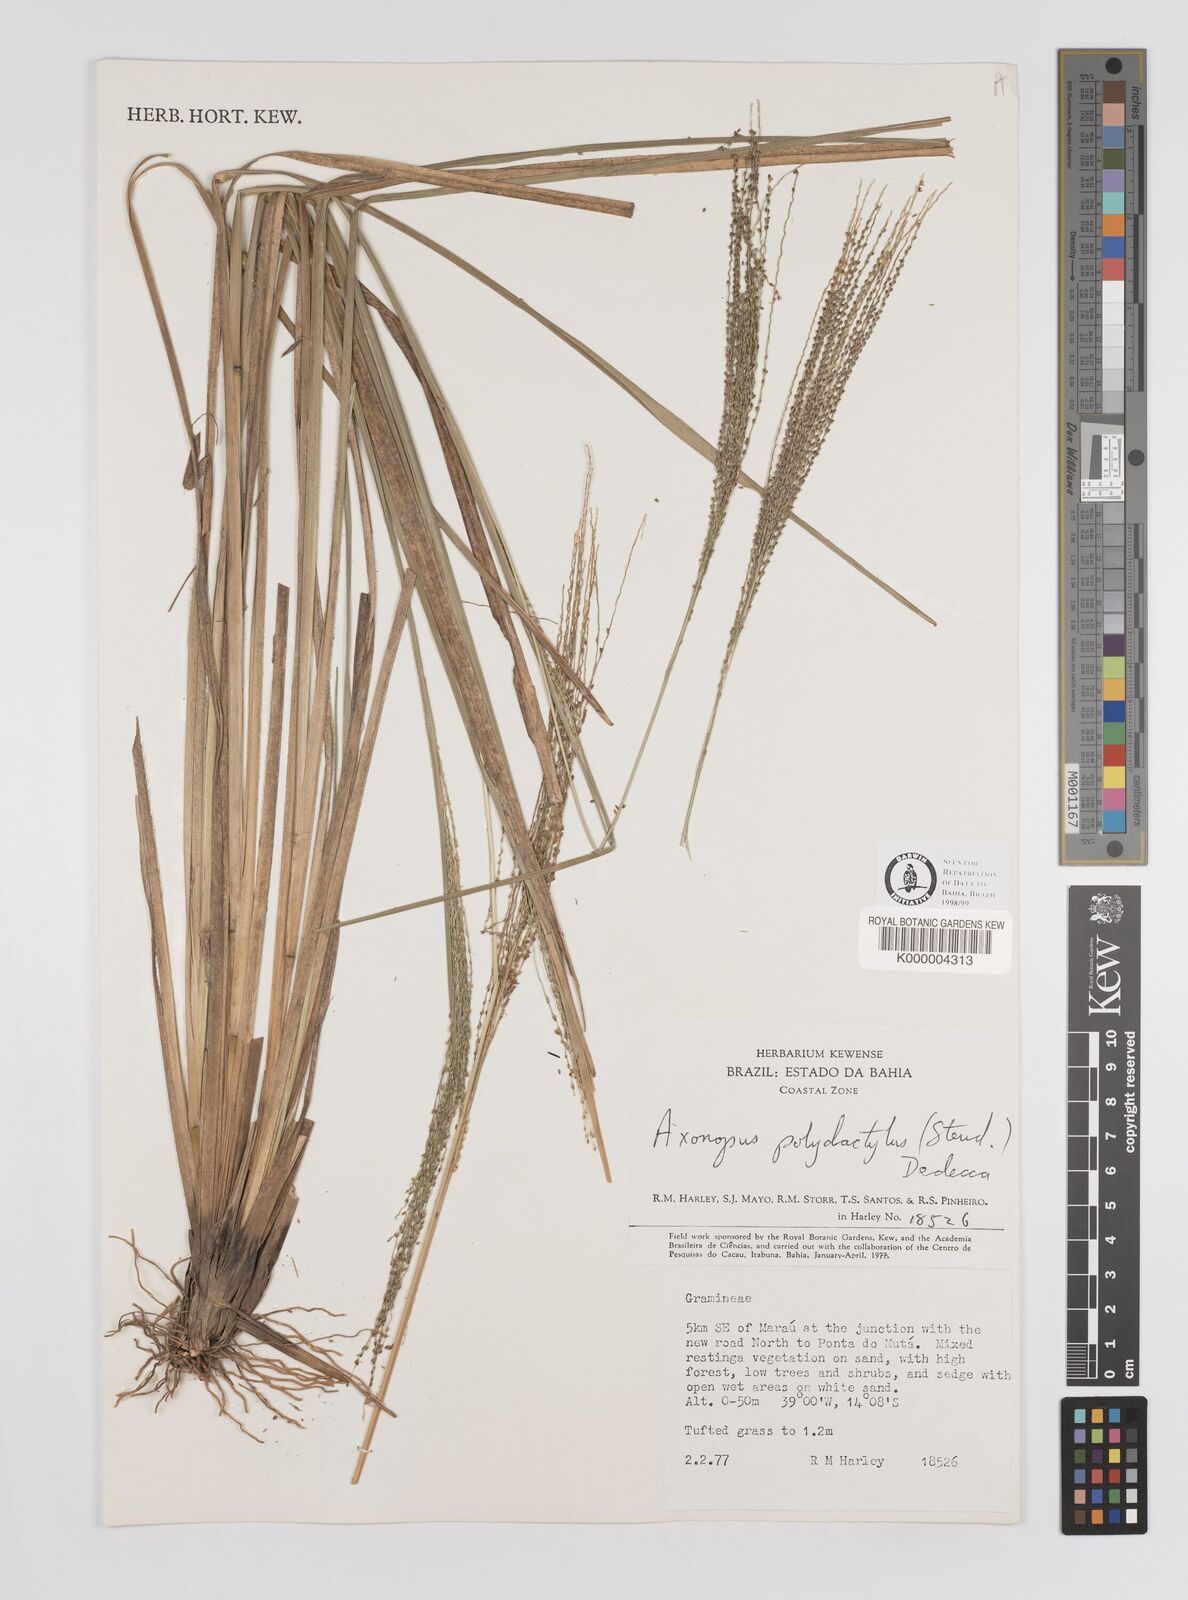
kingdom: Plantae
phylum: Tracheophyta
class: Liliopsida
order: Poales
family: Poaceae
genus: Axonopus
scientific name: Axonopus polydactylus
